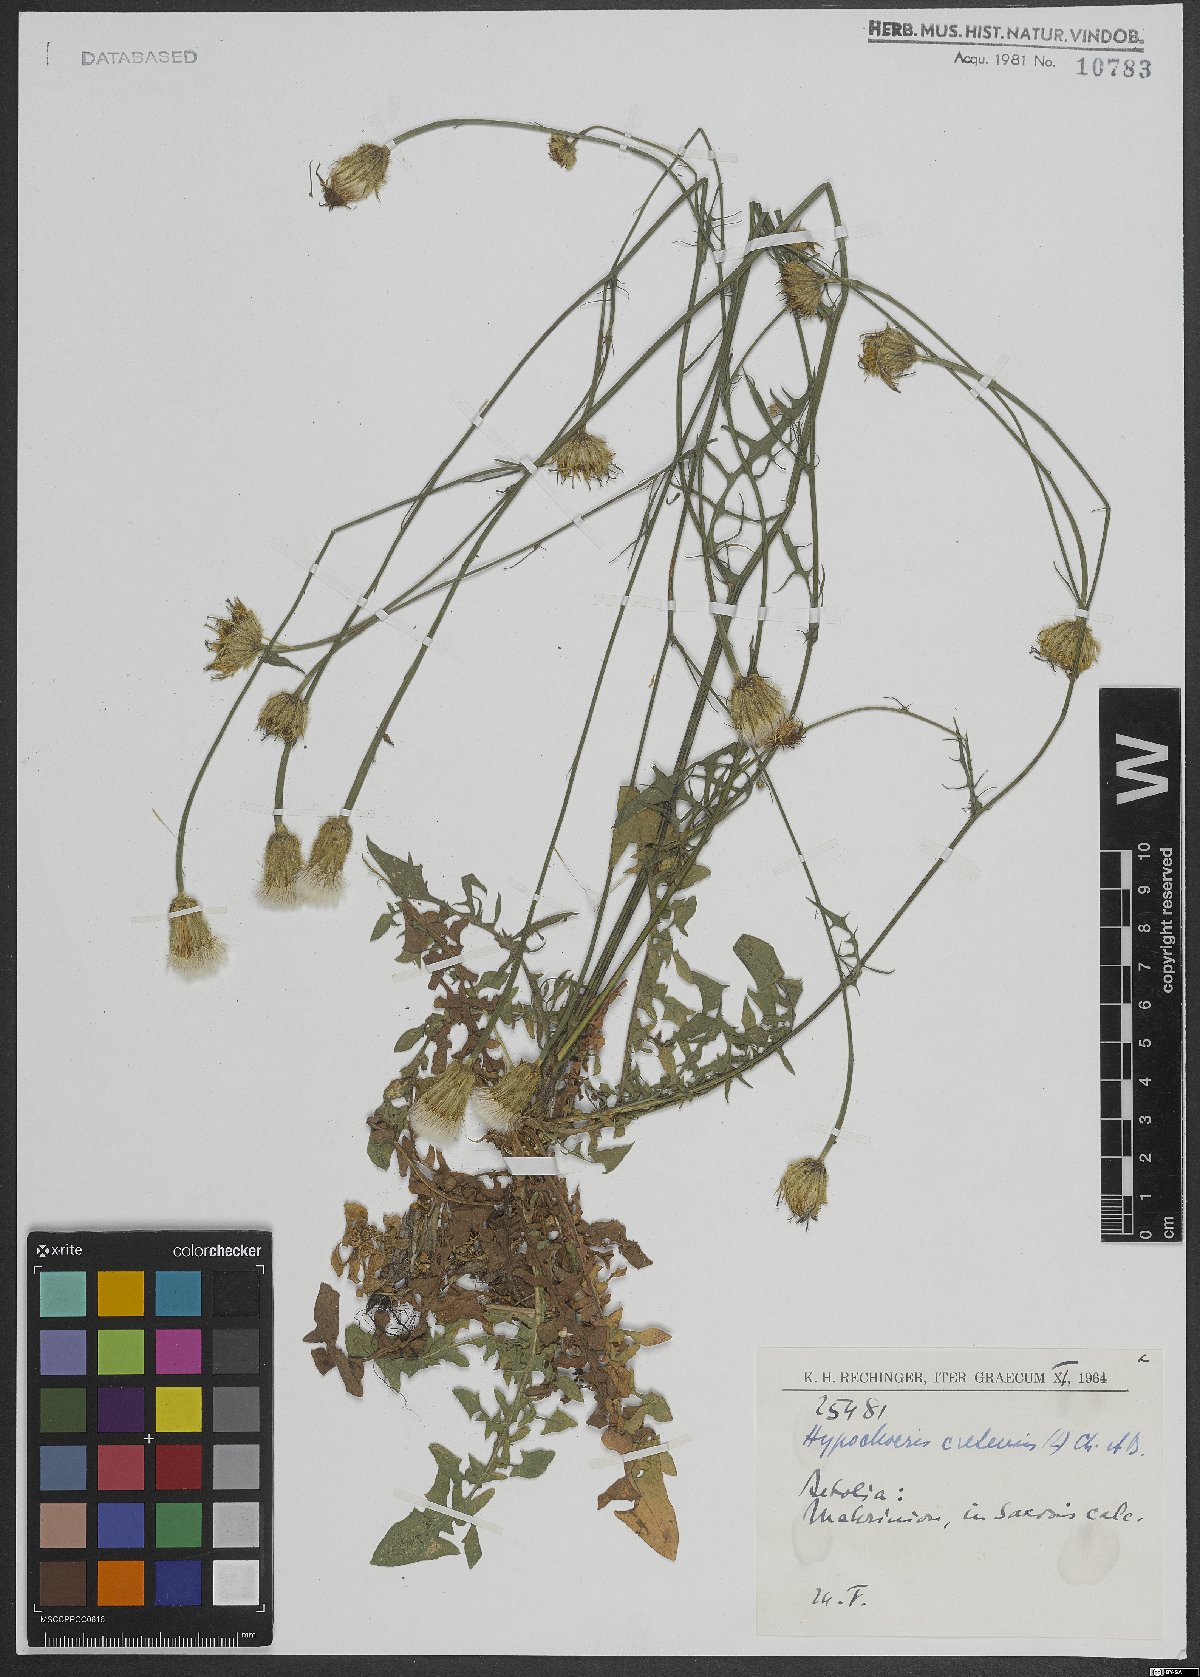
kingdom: Plantae
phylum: Tracheophyta
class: Magnoliopsida
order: Asterales
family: Asteraceae
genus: Hypochaeris
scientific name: Hypochaeris cretensis
